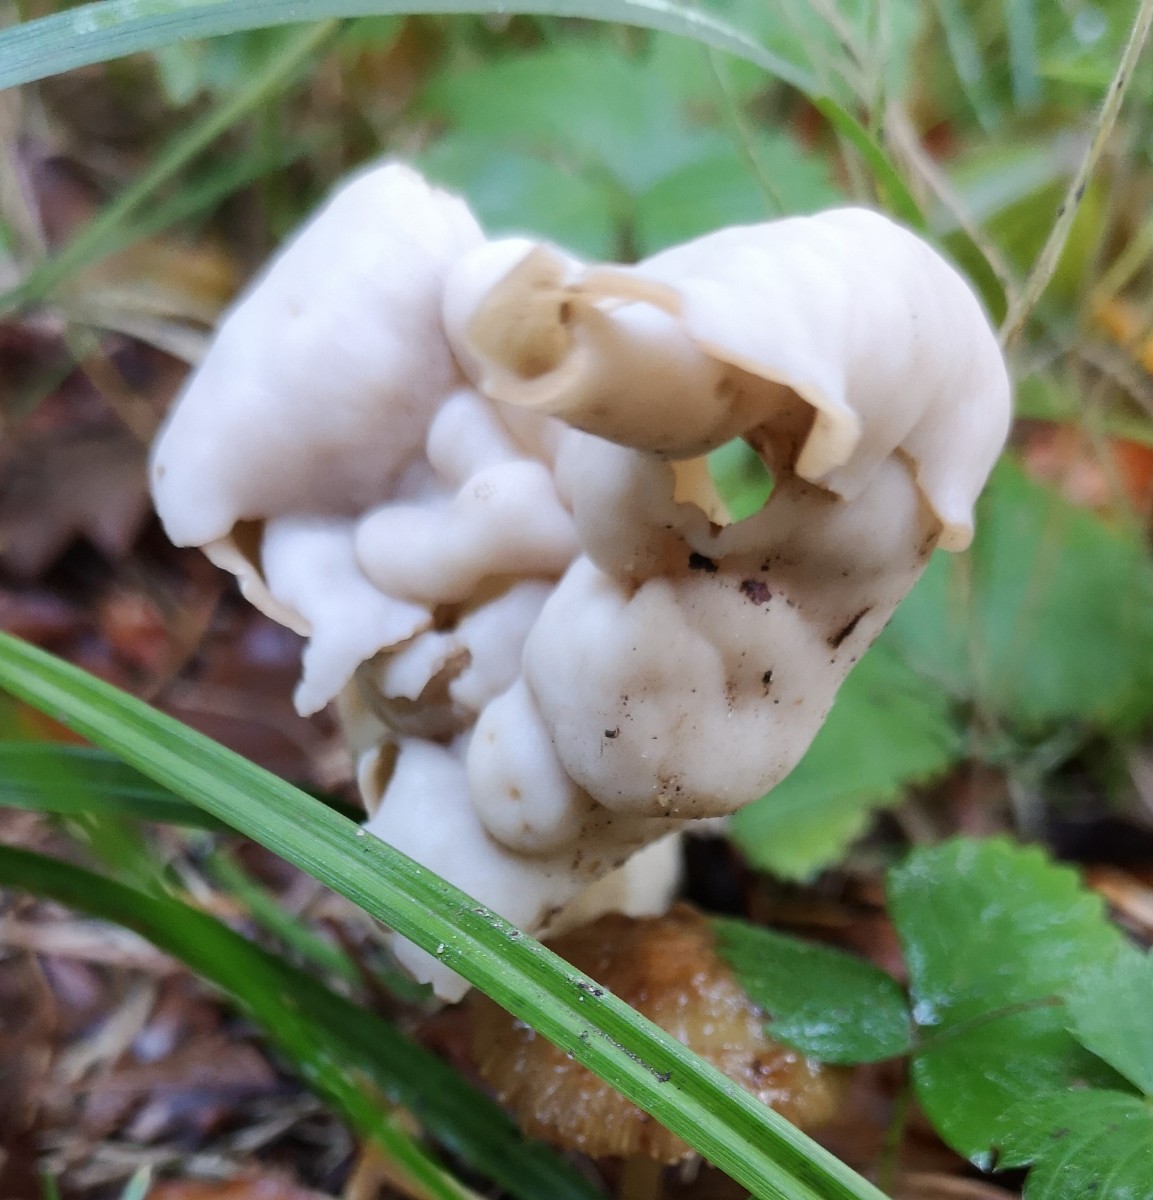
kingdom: Fungi
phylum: Ascomycota
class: Pezizomycetes
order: Pezizales
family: Helvellaceae
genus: Helvella
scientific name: Helvella crispa
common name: kruset foldhat
